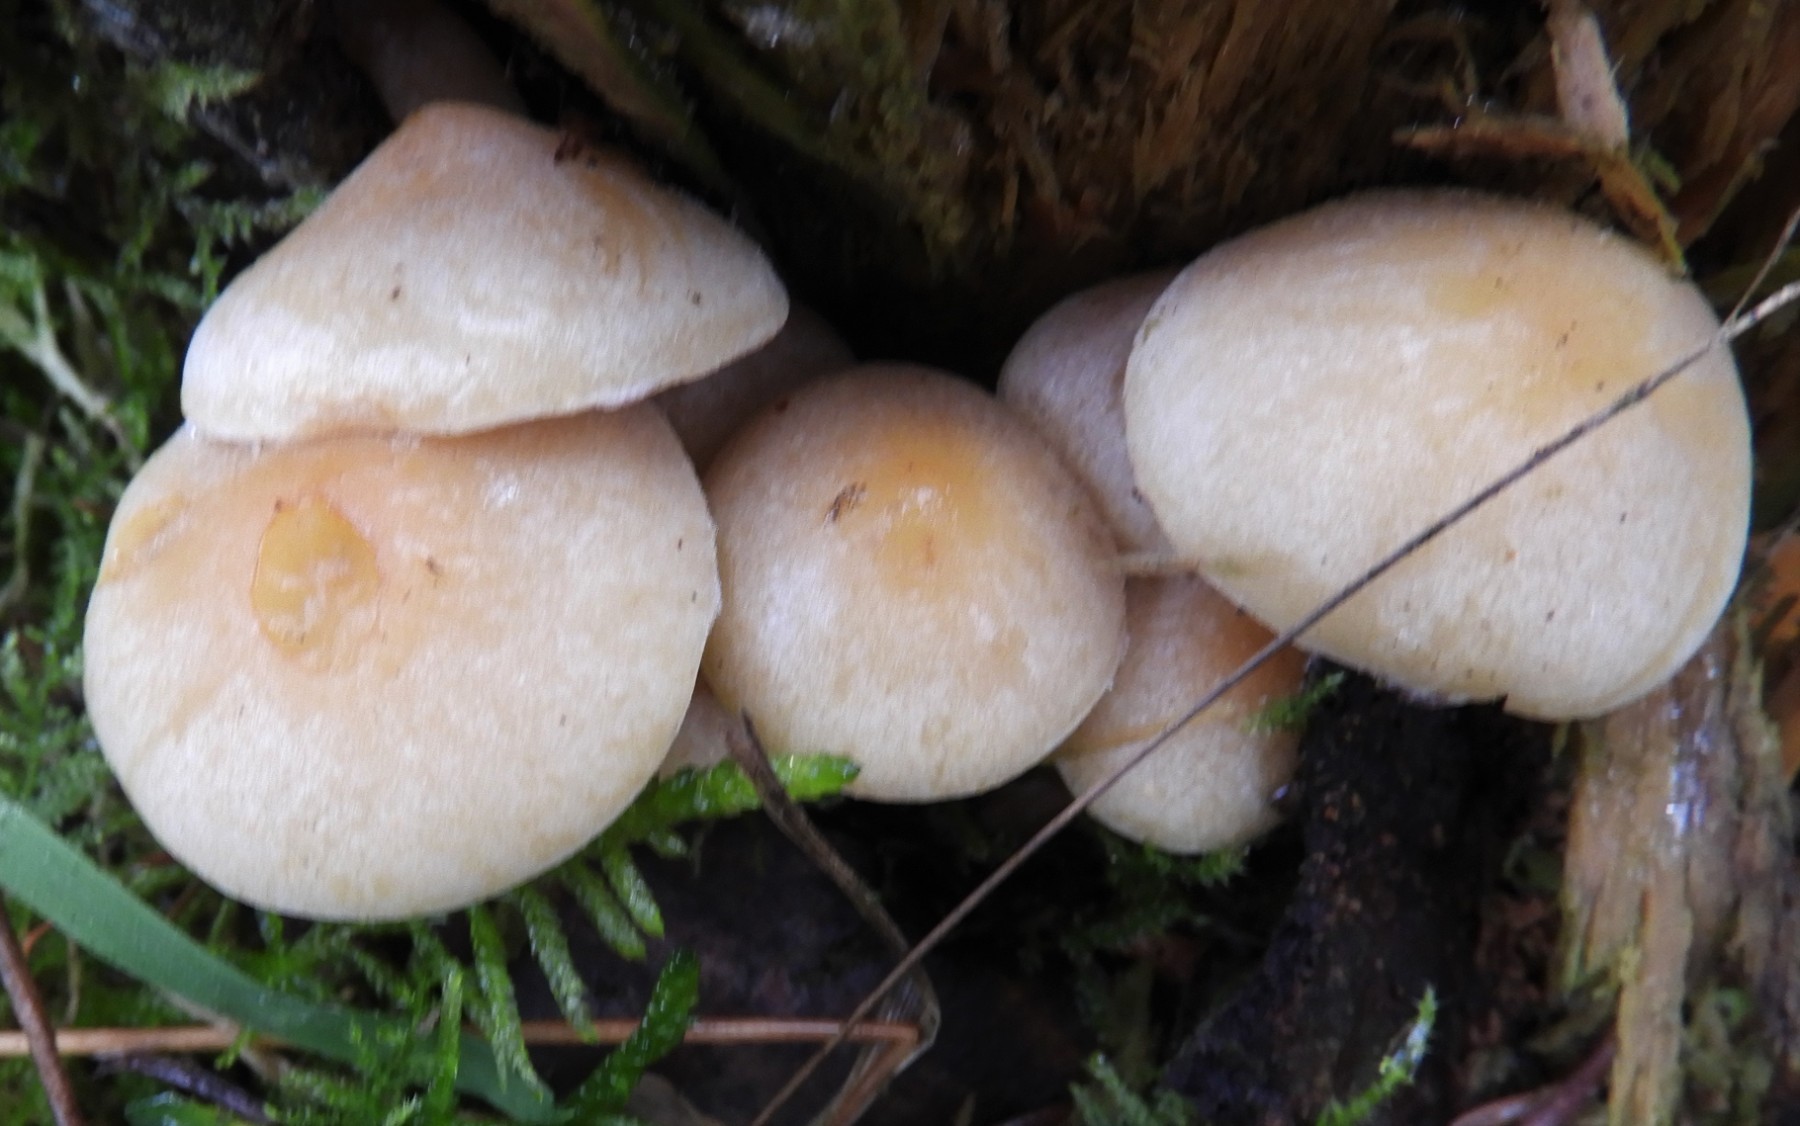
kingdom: Fungi
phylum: Basidiomycota
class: Agaricomycetes
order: Agaricales
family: Strophariaceae
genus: Hypholoma
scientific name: Hypholoma capnoides
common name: gran-svovlhat
